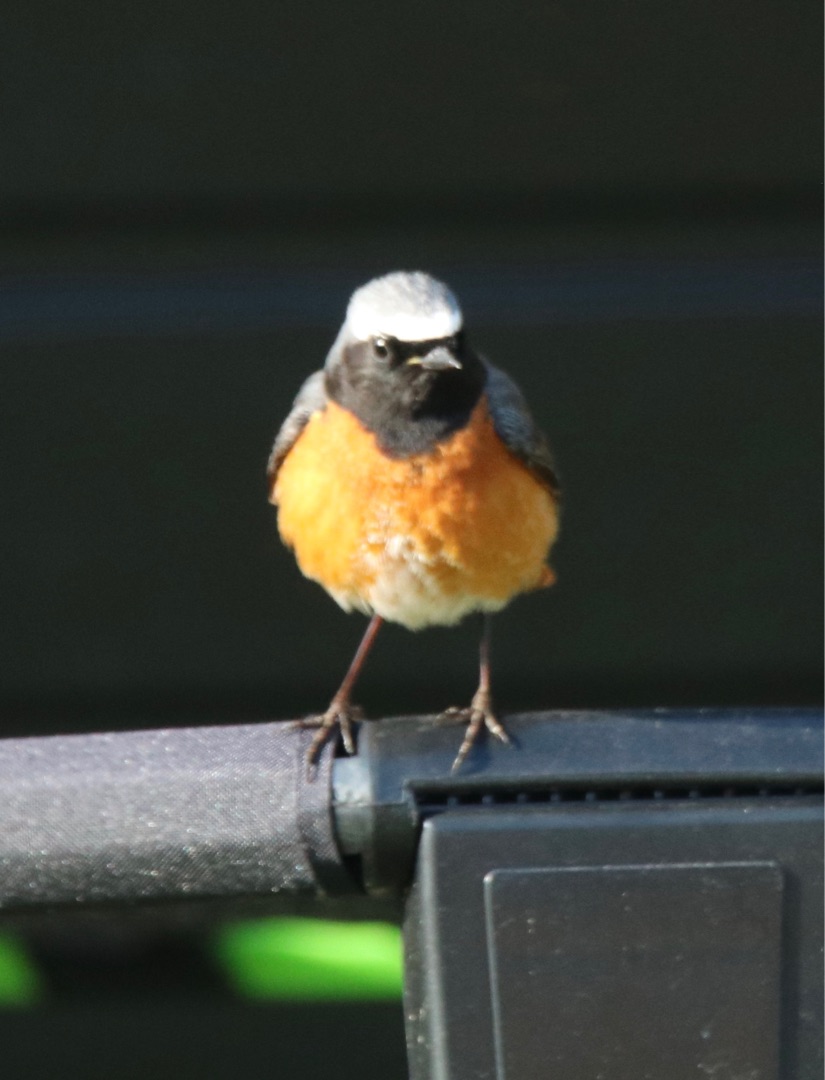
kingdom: Animalia
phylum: Chordata
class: Aves
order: Passeriformes
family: Muscicapidae
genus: Phoenicurus
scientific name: Phoenicurus phoenicurus
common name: Rødstjert
